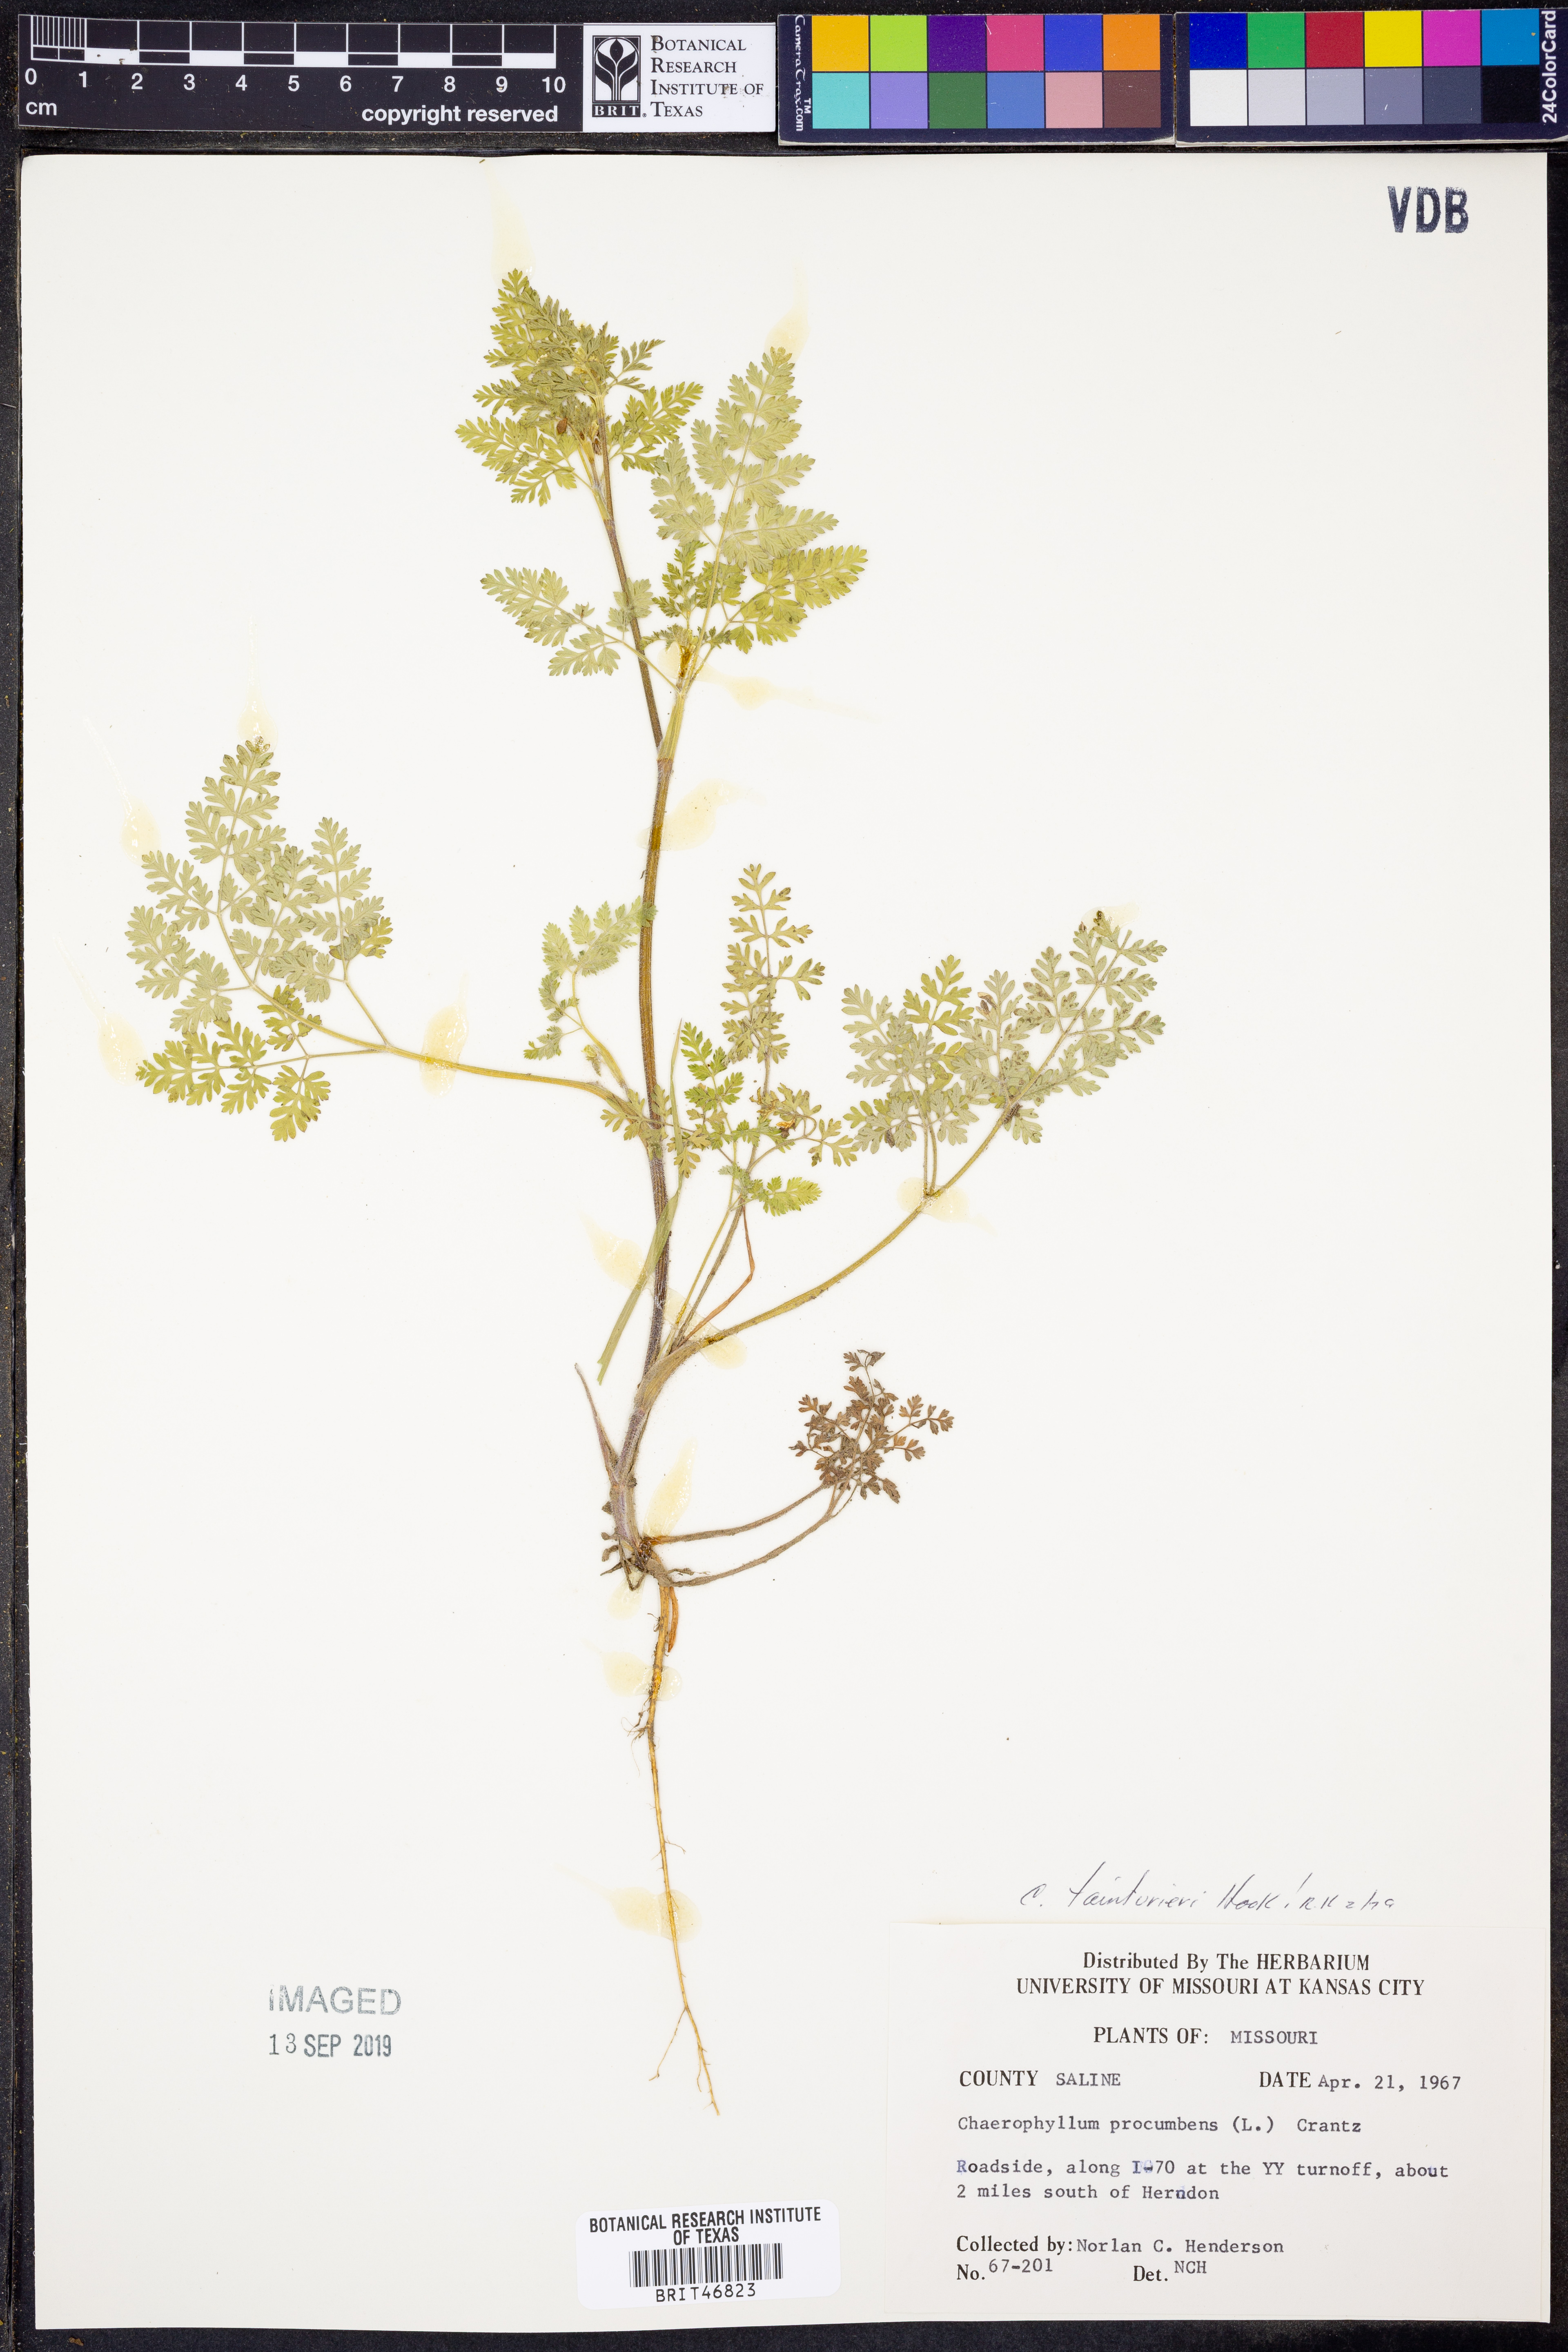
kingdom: Plantae
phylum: Tracheophyta
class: Magnoliopsida
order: Apiales
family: Apiaceae
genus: Chaerophyllum
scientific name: Chaerophyllum tainturieri
